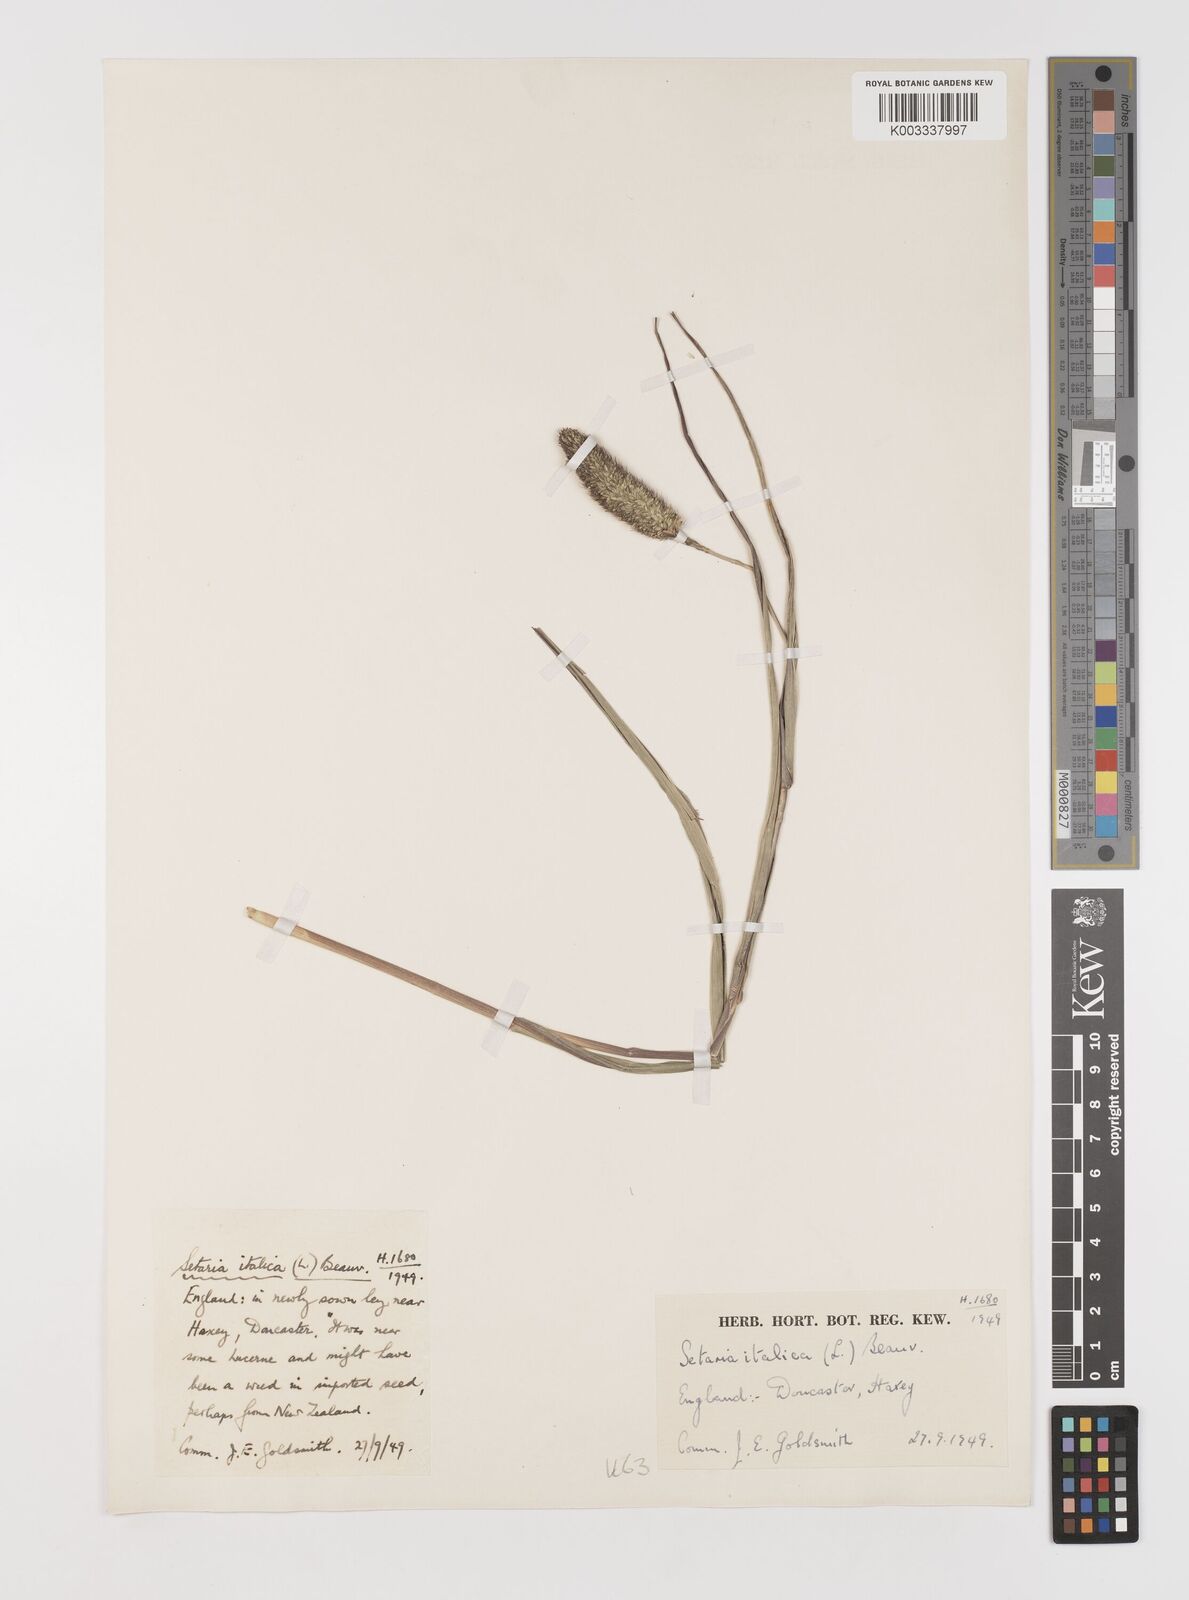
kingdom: Plantae
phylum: Tracheophyta
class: Liliopsida
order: Poales
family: Poaceae
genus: Setaria
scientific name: Setaria italica
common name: Foxtail bristle-grass
